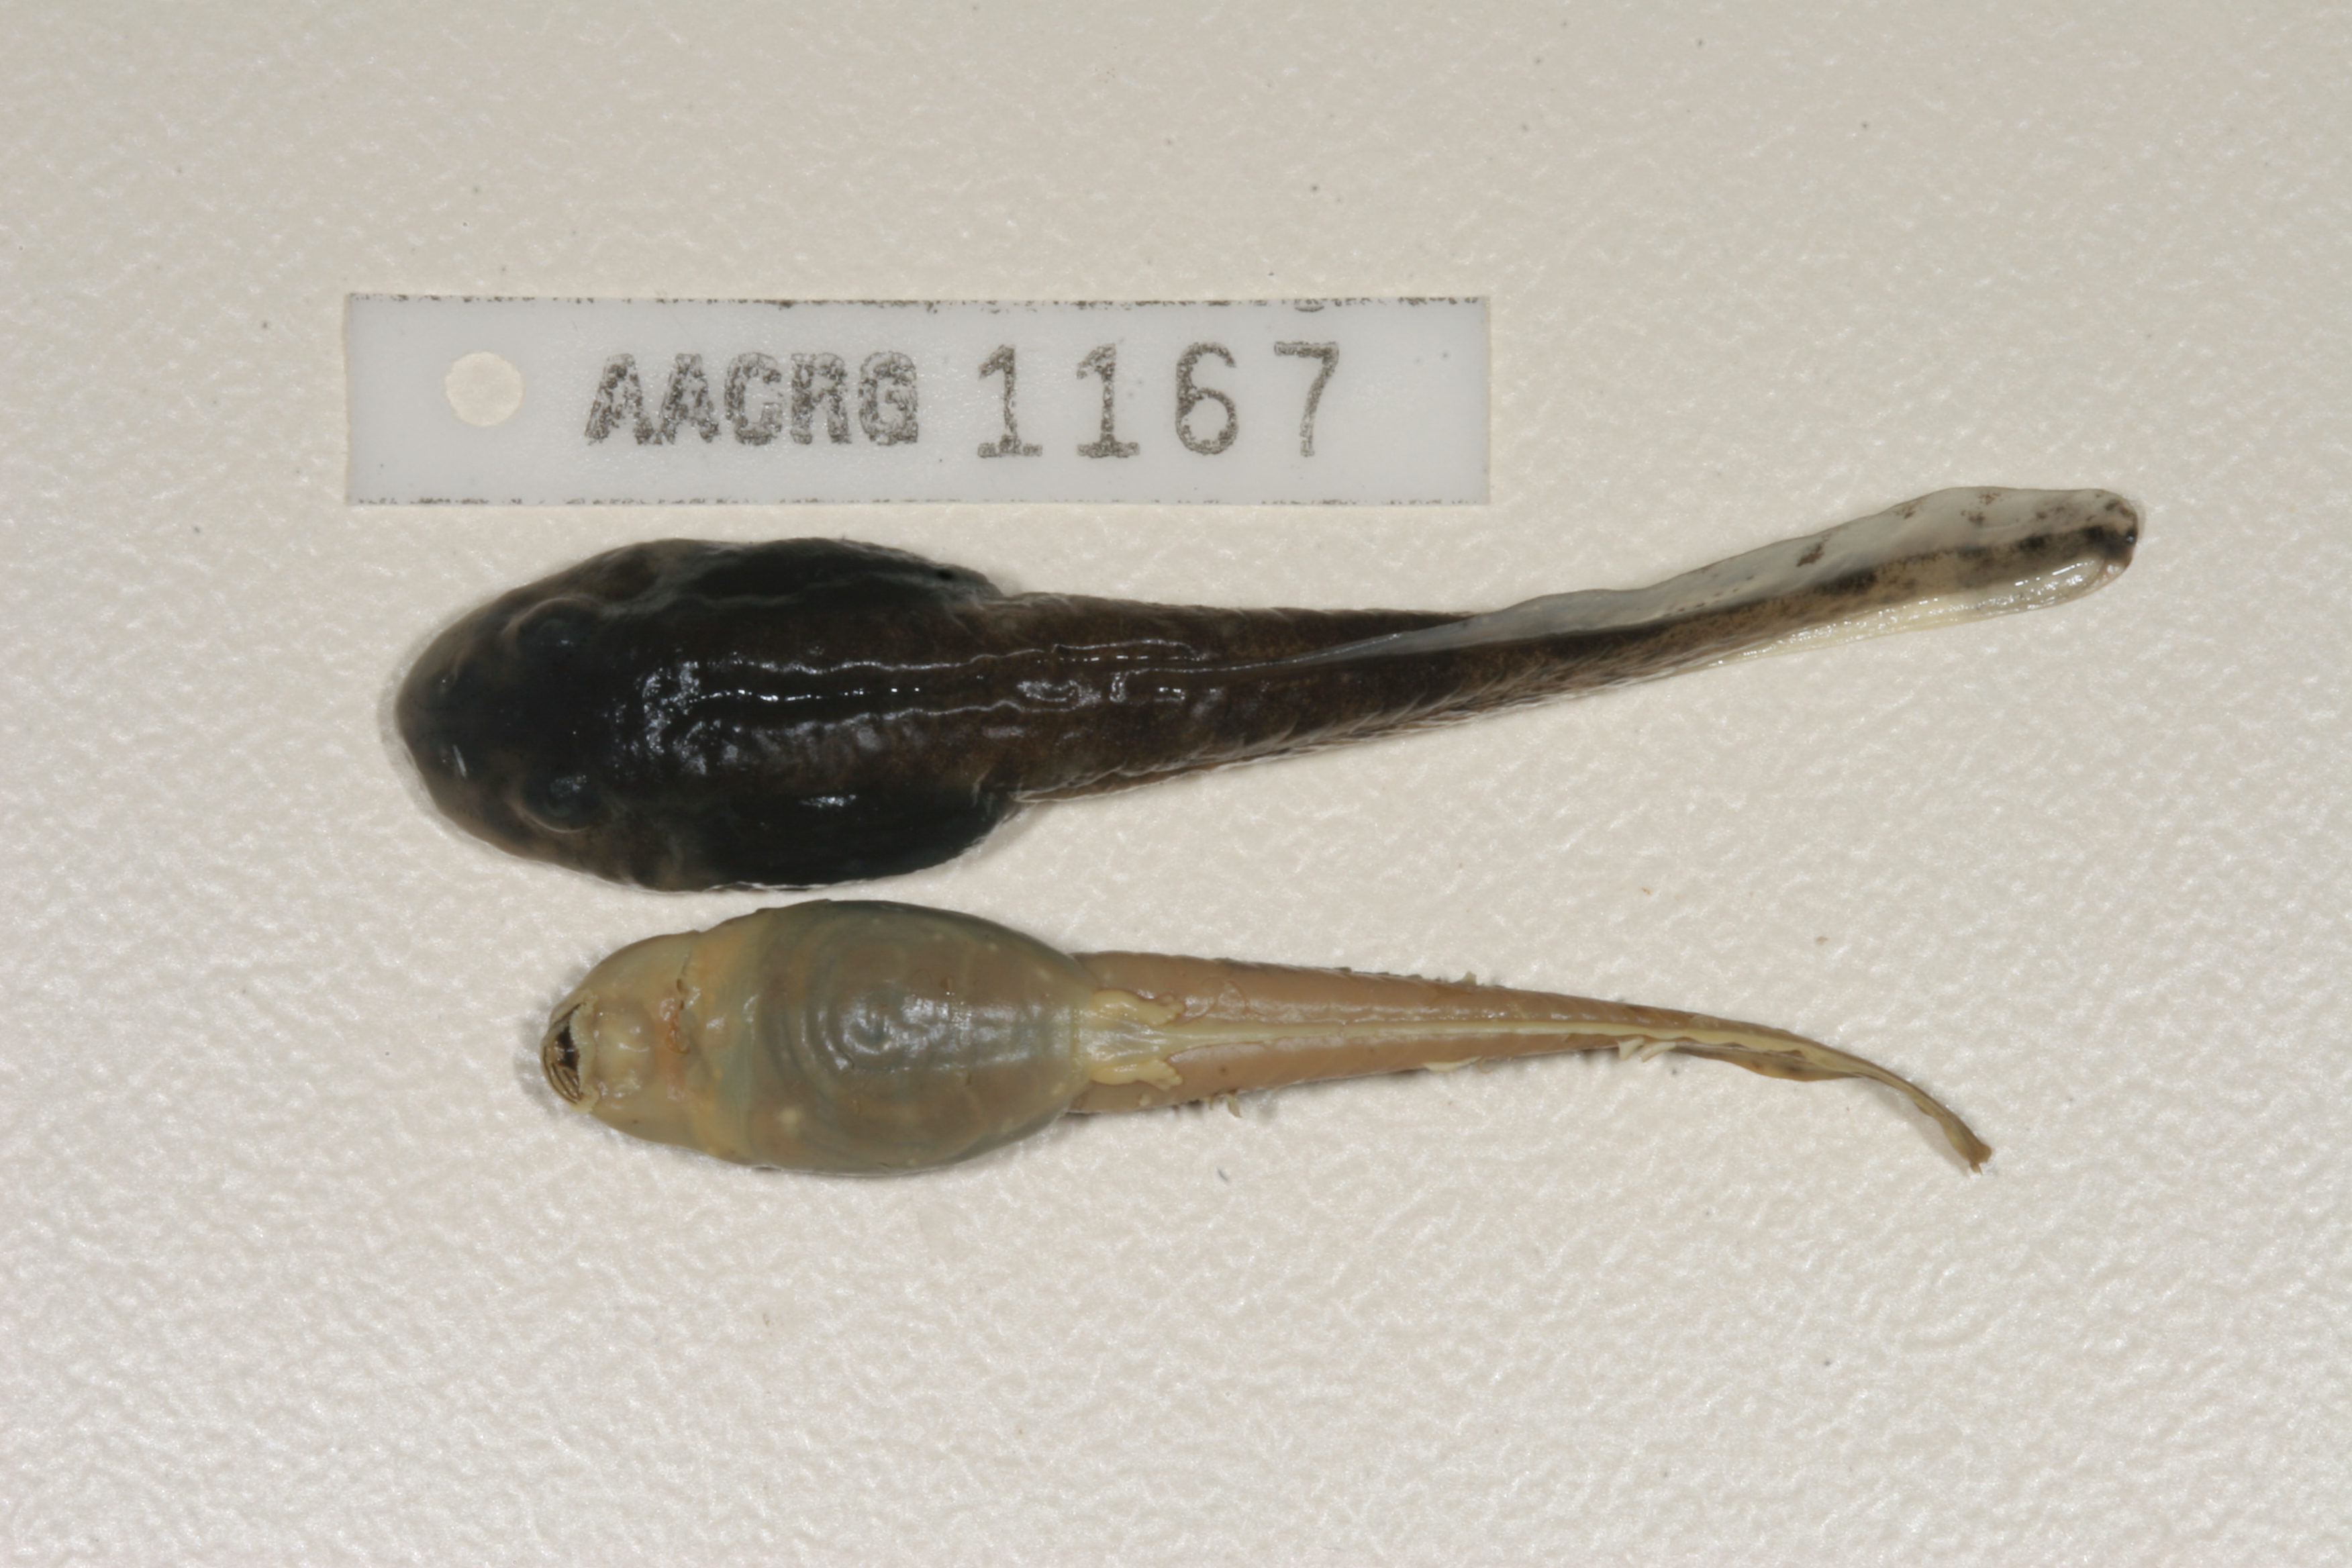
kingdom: Animalia
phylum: Chordata
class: Amphibia
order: Anura
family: Pyxicephalidae
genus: Amietia
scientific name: Amietia vertebralis
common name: Drakensberg stream frog
